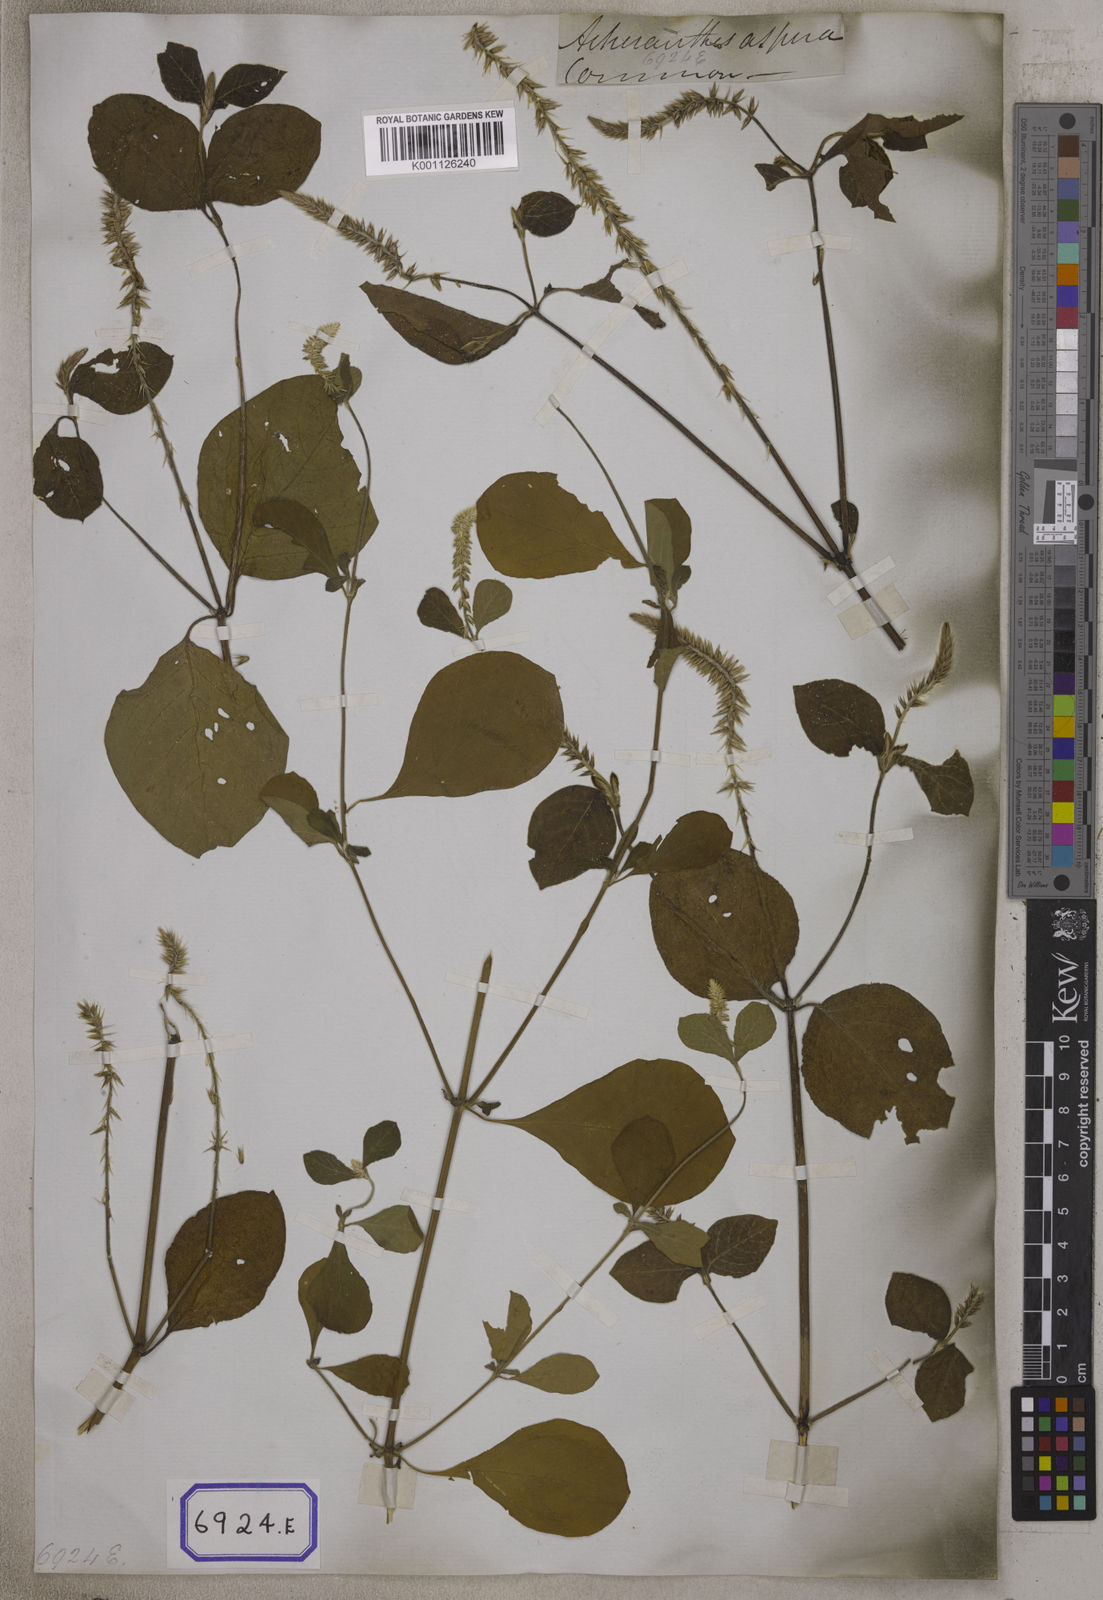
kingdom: Plantae
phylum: Tracheophyta
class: Magnoliopsida
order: Caryophyllales
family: Amaranthaceae
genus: Achyranthes
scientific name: Achyranthes
